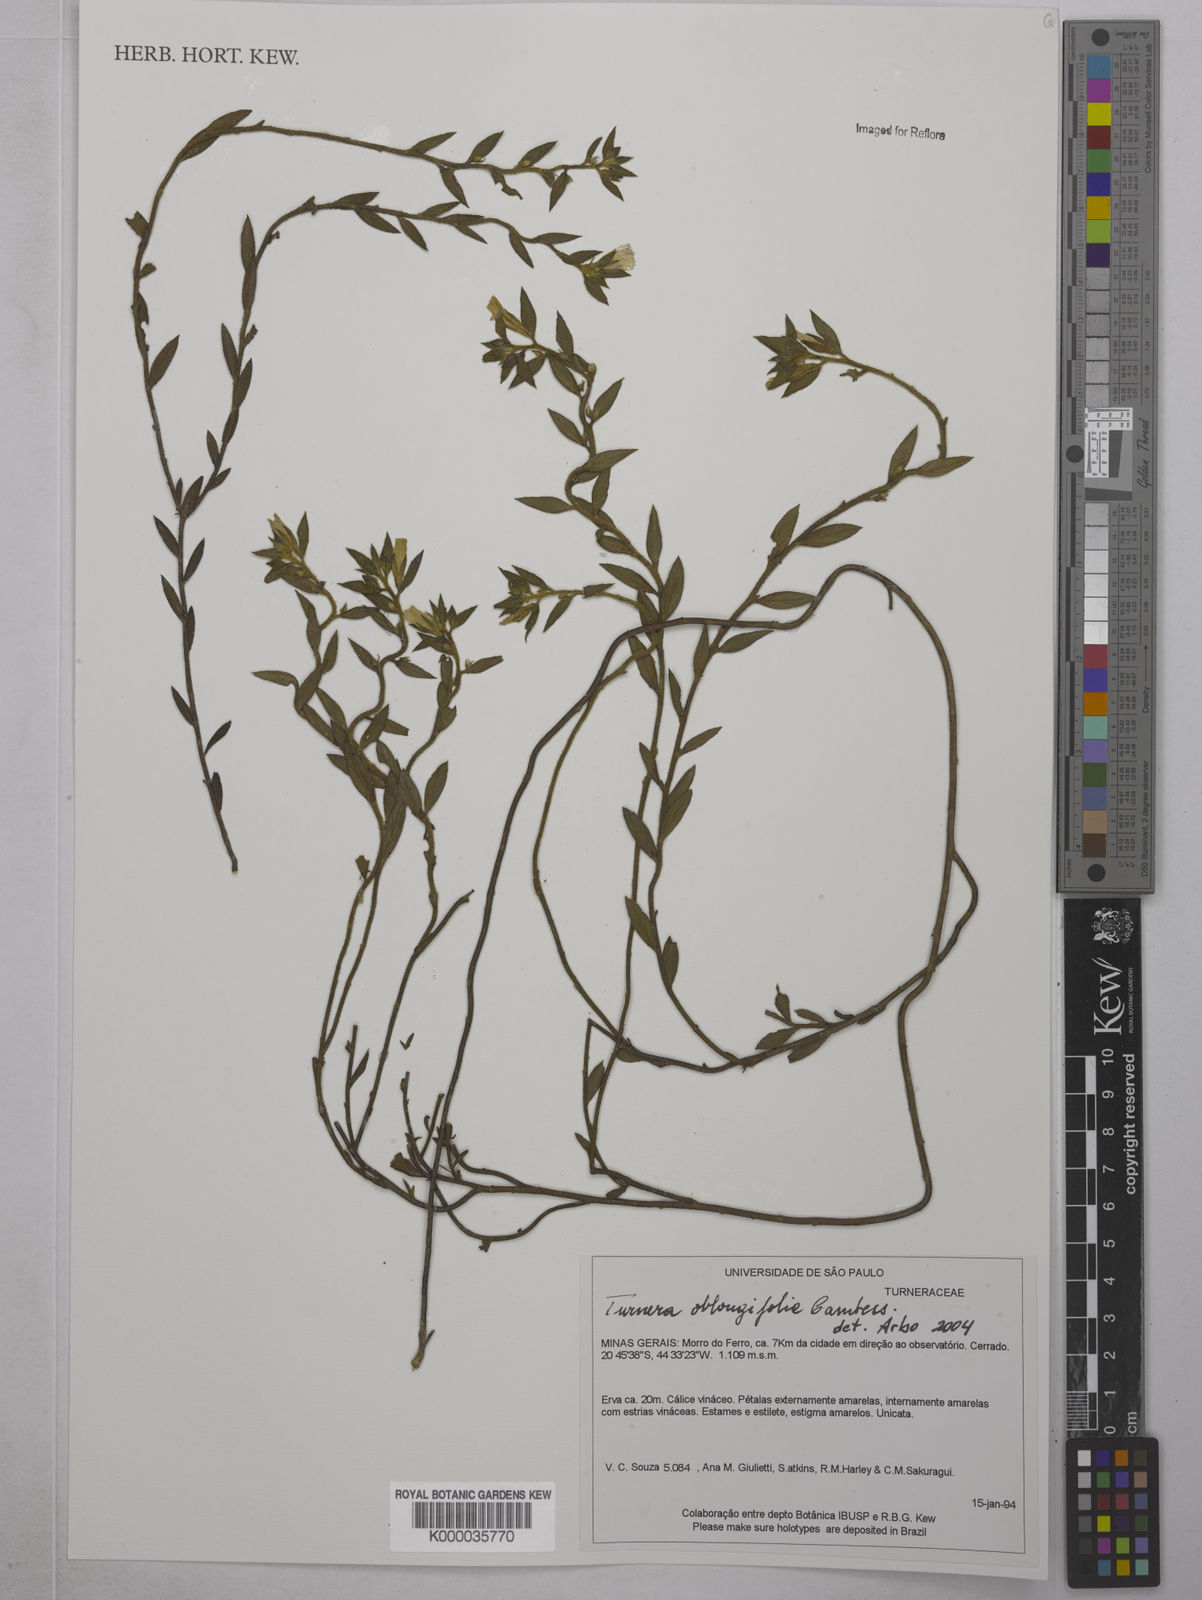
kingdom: Plantae
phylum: Tracheophyta
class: Magnoliopsida
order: Malpighiales
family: Turneraceae
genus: Turnera
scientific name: Turnera oblongifolia
